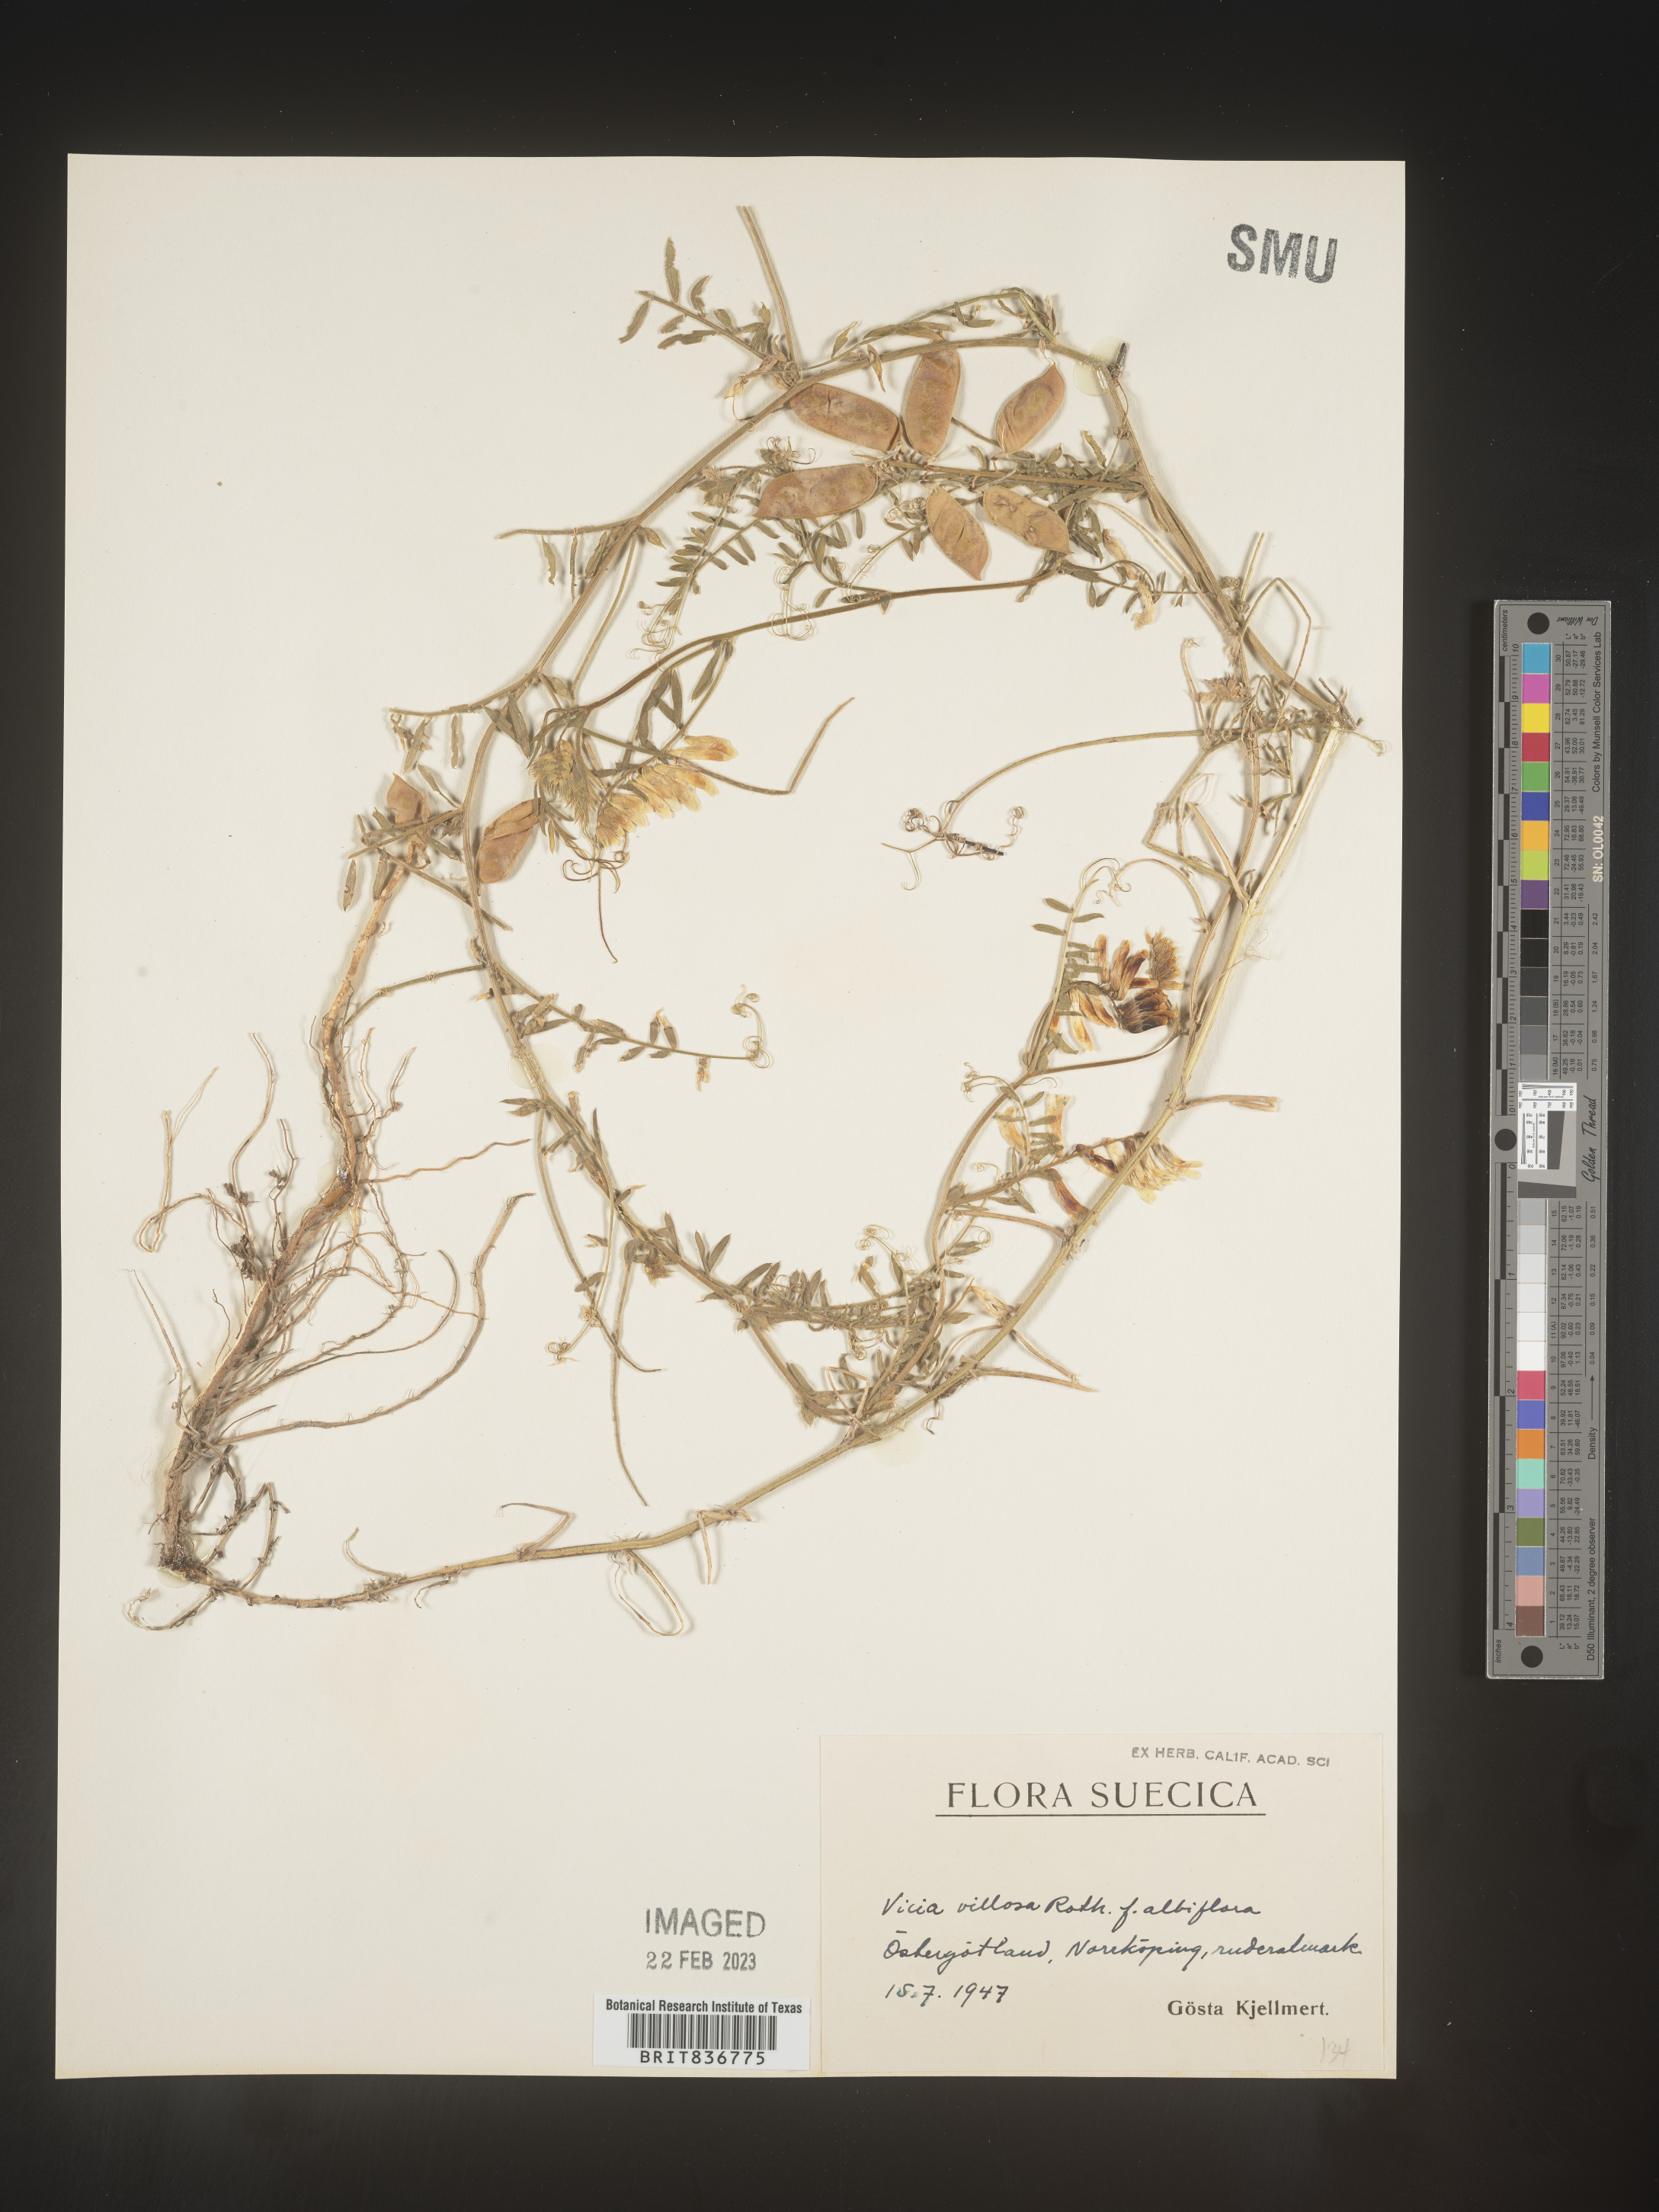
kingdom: Plantae
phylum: Tracheophyta
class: Magnoliopsida
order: Fabales
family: Fabaceae
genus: Vicia
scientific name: Vicia
